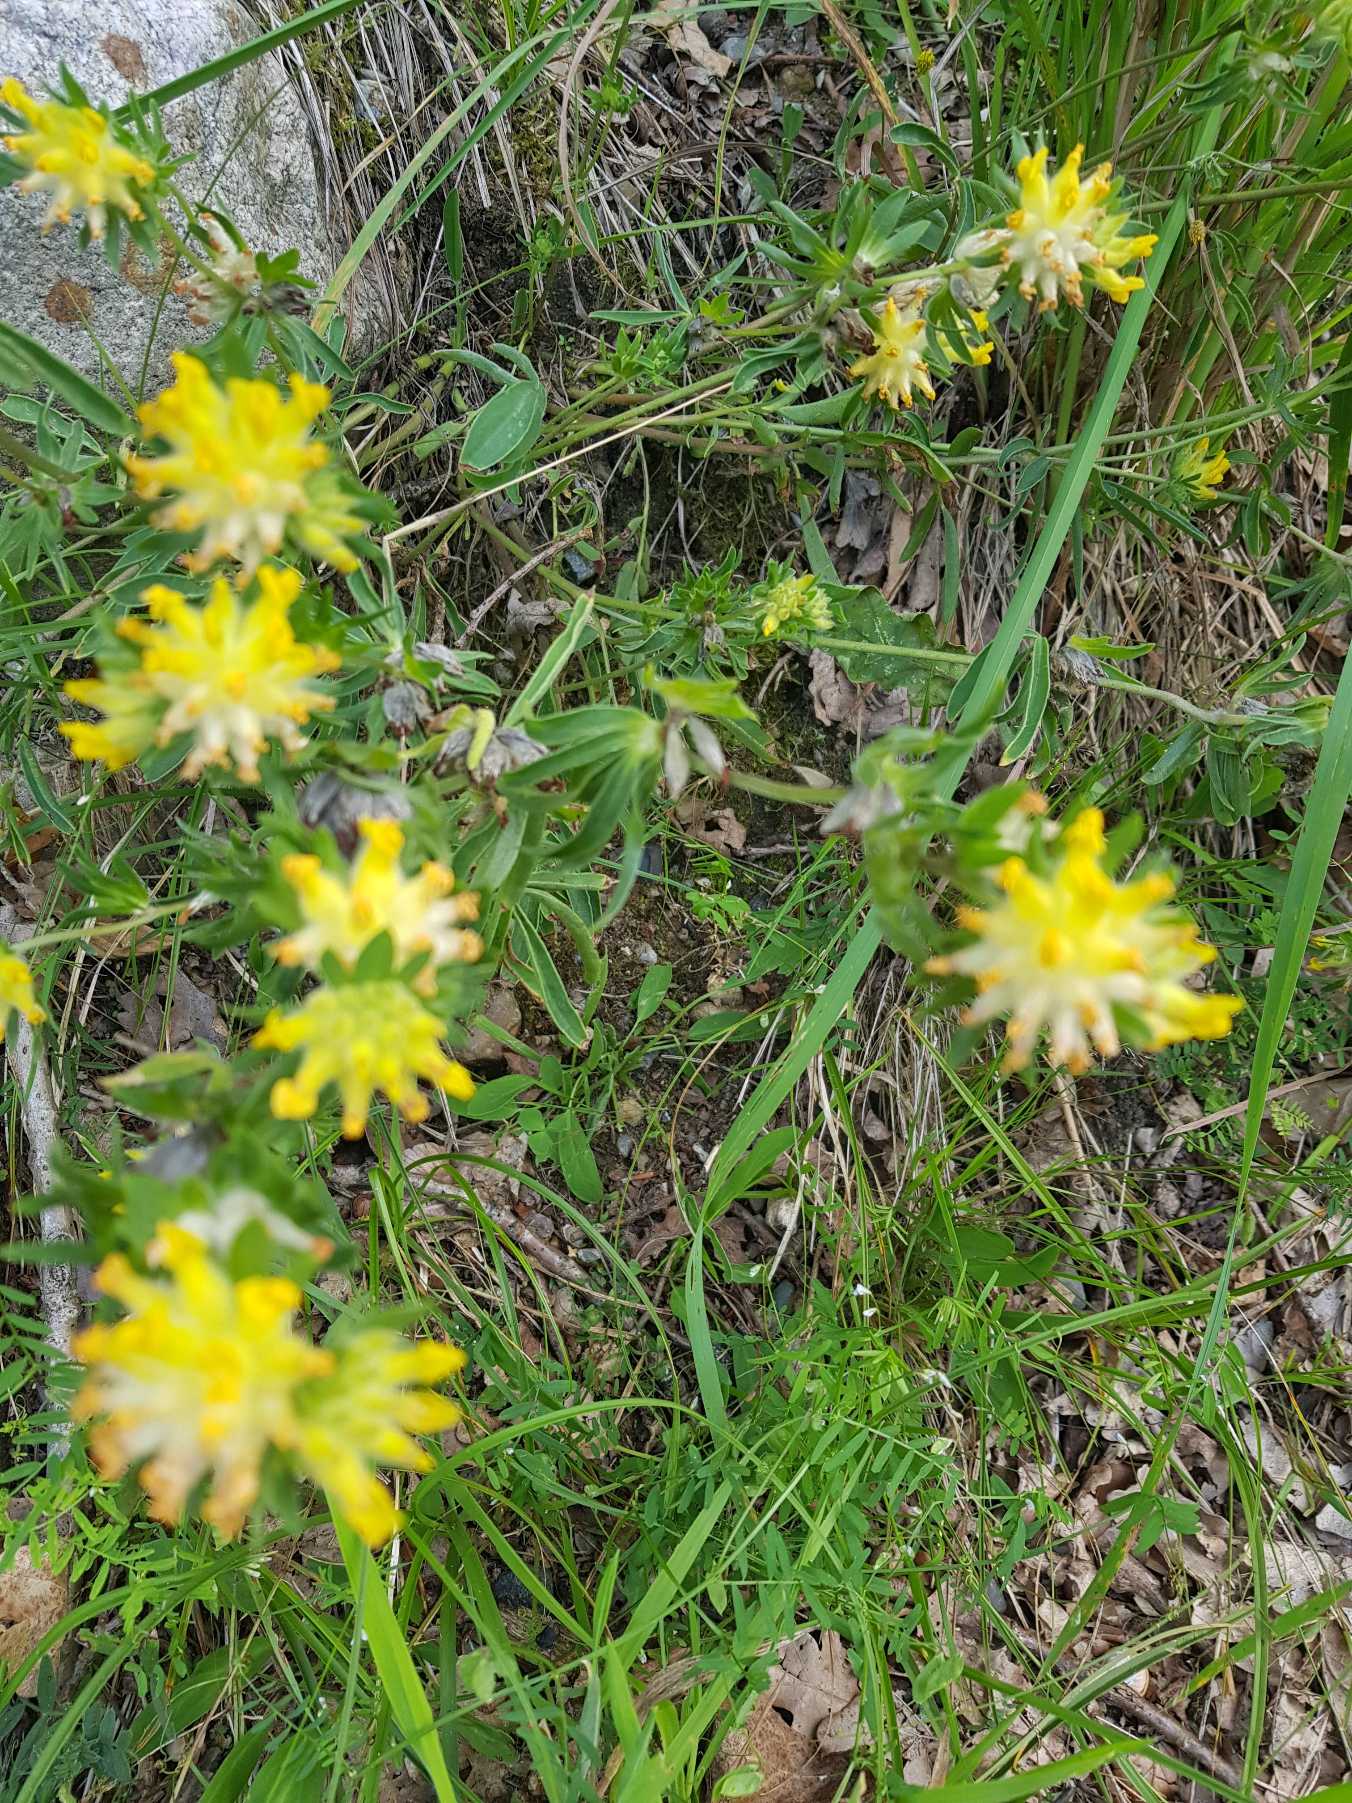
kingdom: Plantae
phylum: Tracheophyta
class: Magnoliopsida
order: Fabales
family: Fabaceae
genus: Anthyllis
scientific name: Anthyllis vulneraria
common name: Rundbælg
